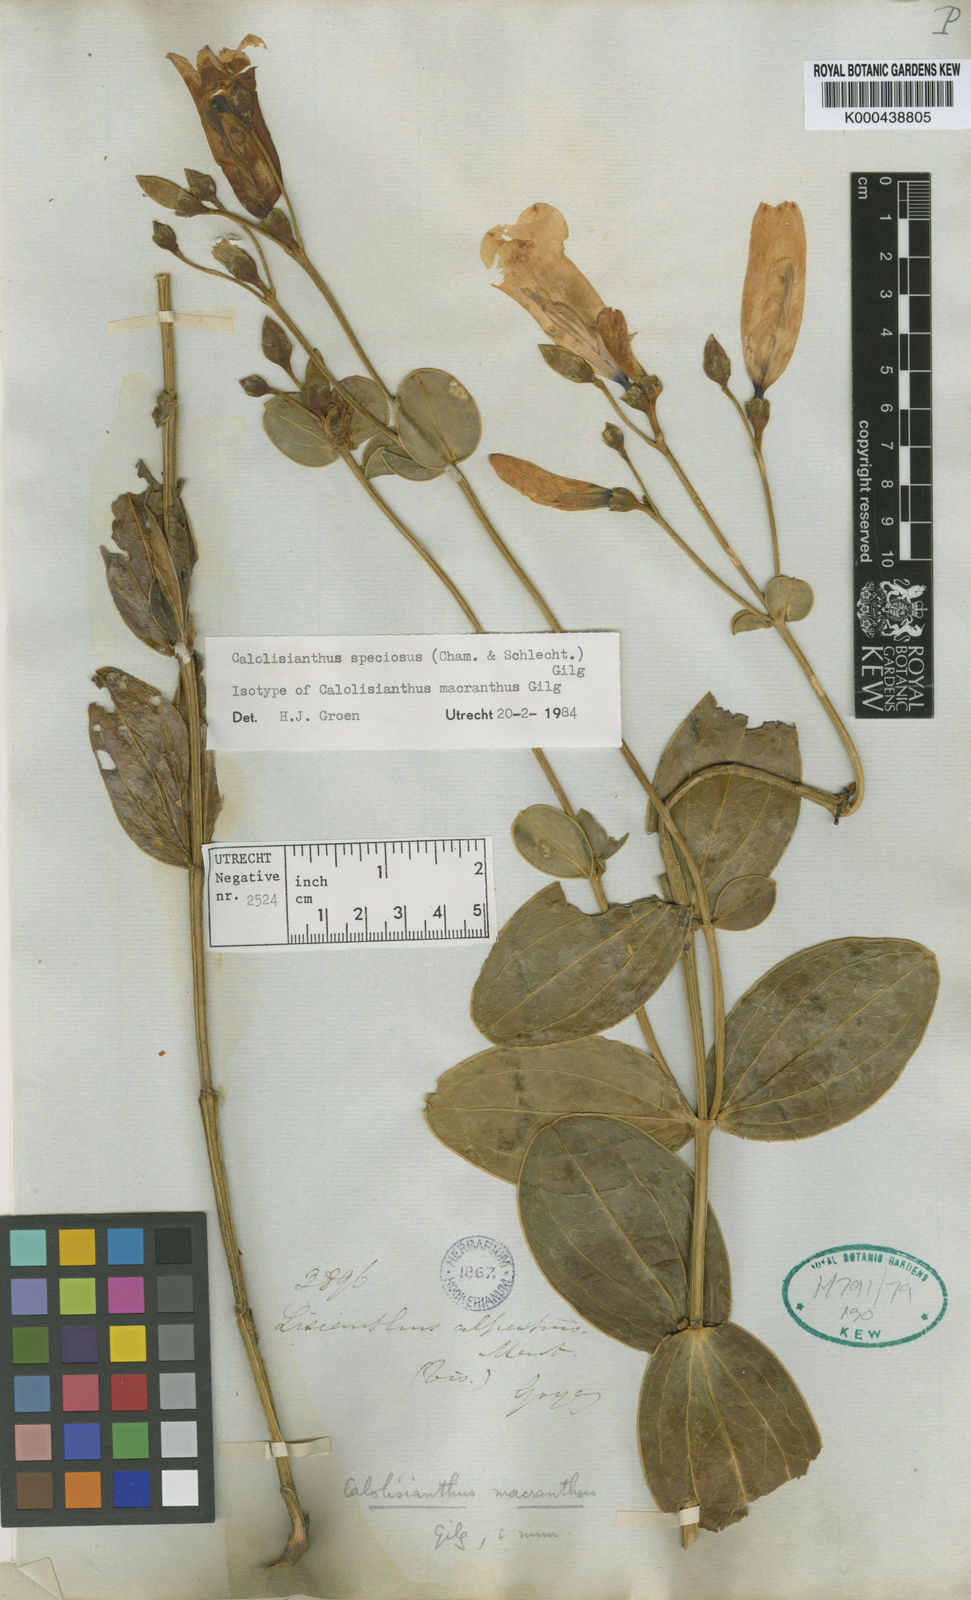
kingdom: Plantae
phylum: Tracheophyta
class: Magnoliopsida
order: Gentianales
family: Gentianaceae
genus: Calolisianthus
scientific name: Calolisianthus speciosus
